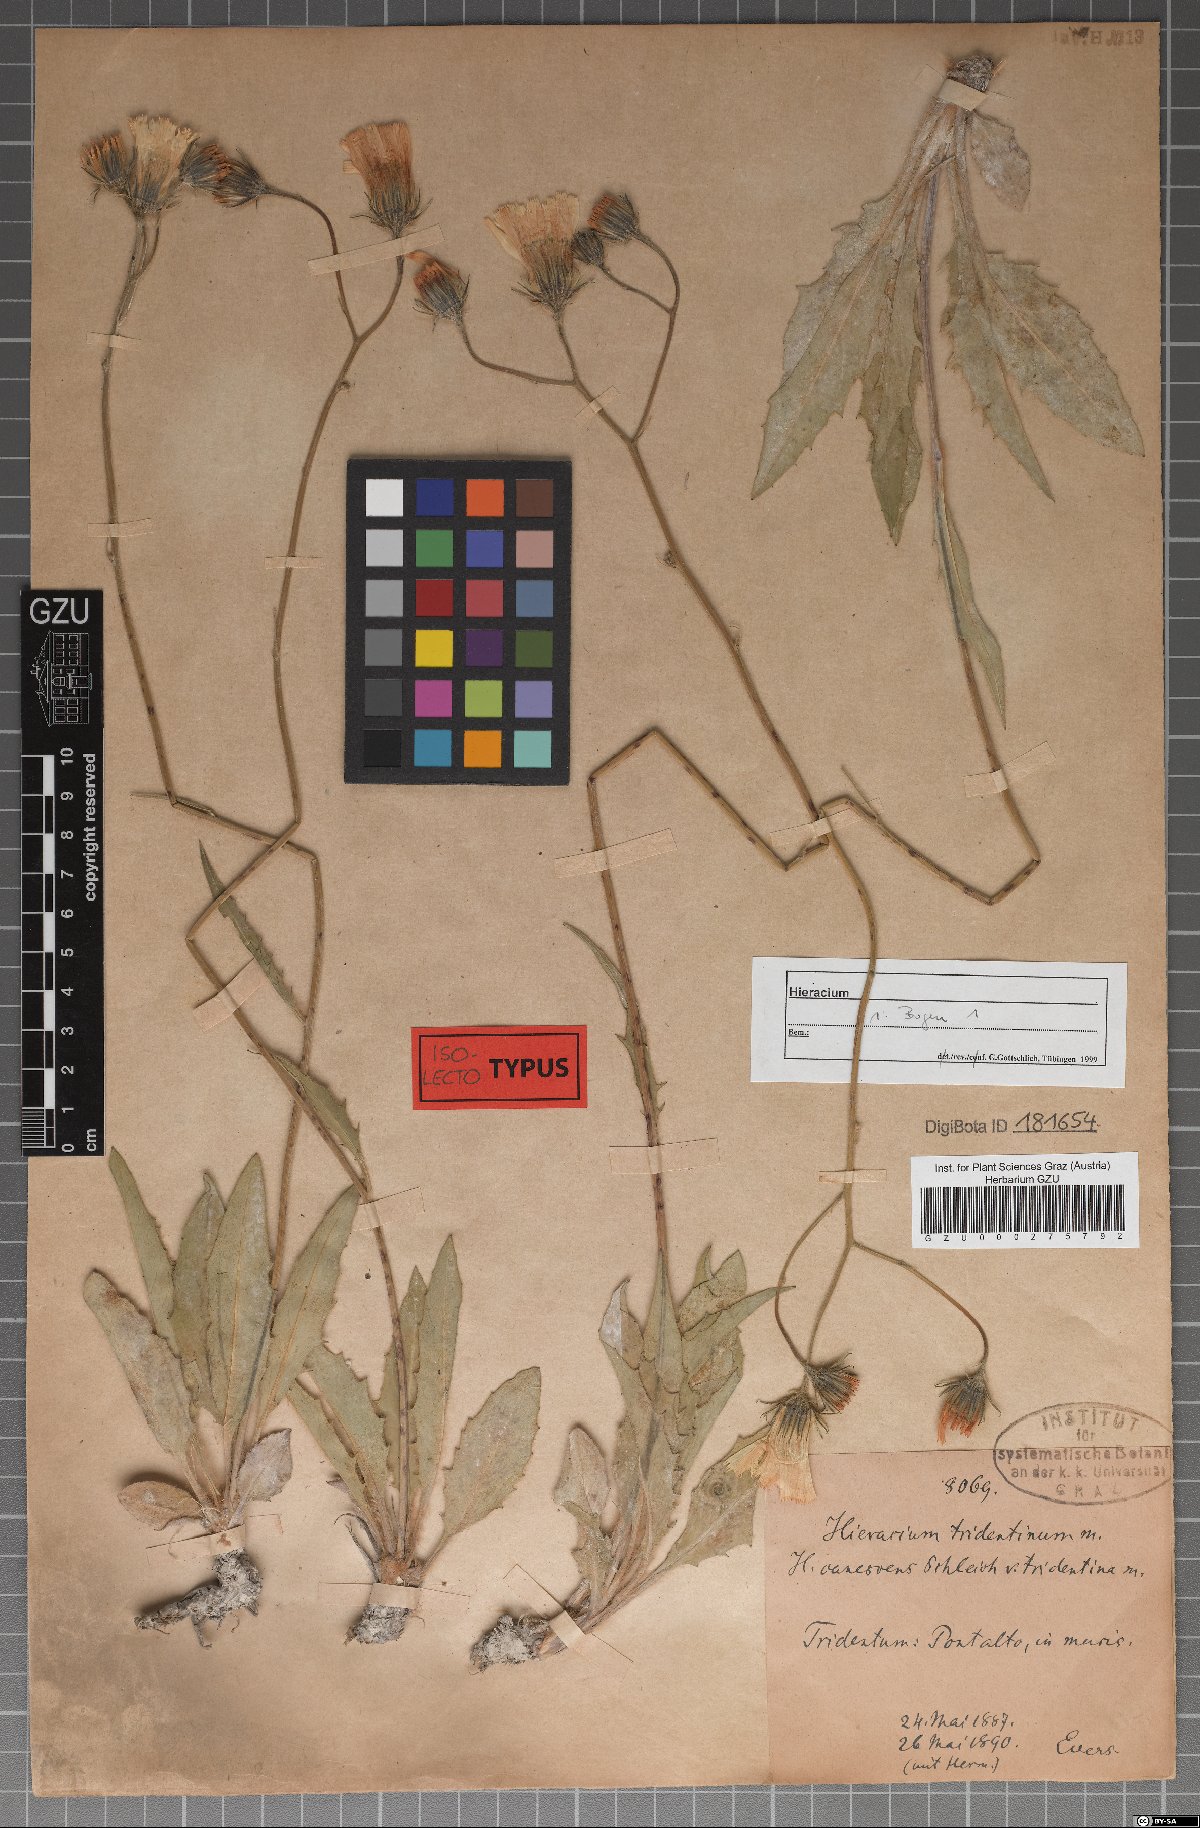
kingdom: Plantae
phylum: Tracheophyta
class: Magnoliopsida
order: Asterales
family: Asteraceae
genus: Hieracium
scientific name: Hieracium tridentinum
